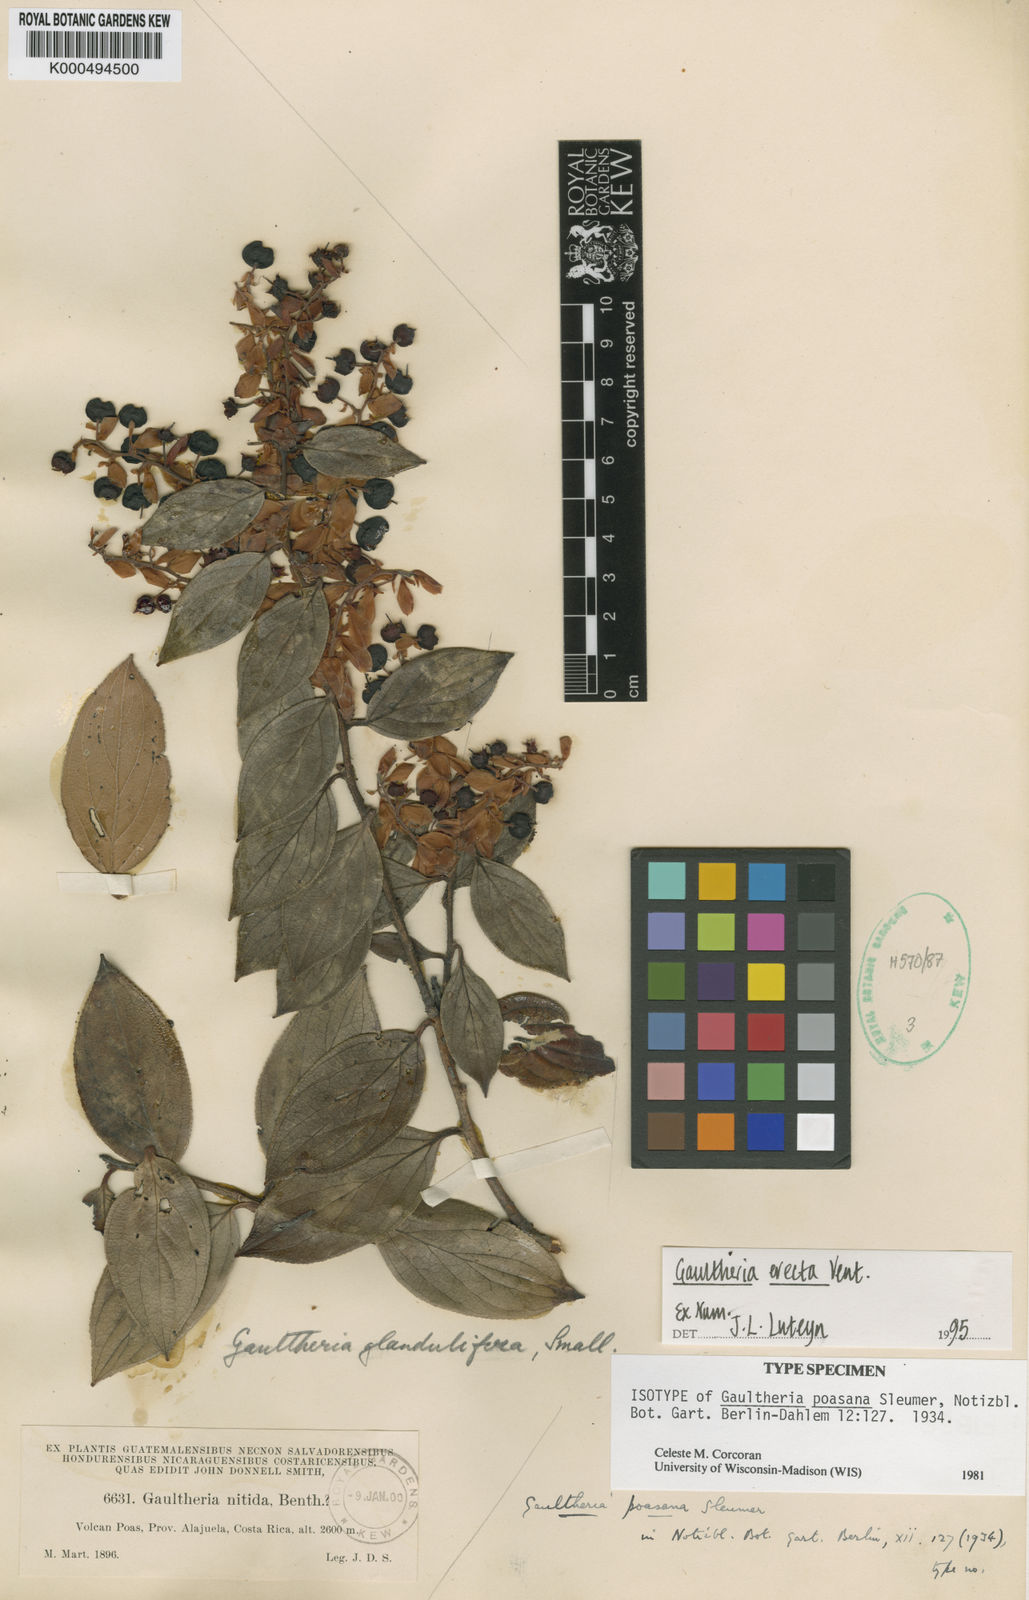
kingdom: Plantae
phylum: Tracheophyta
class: Magnoliopsida
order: Ericales
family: Ericaceae
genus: Gaultheria
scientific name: Gaultheria erecta
